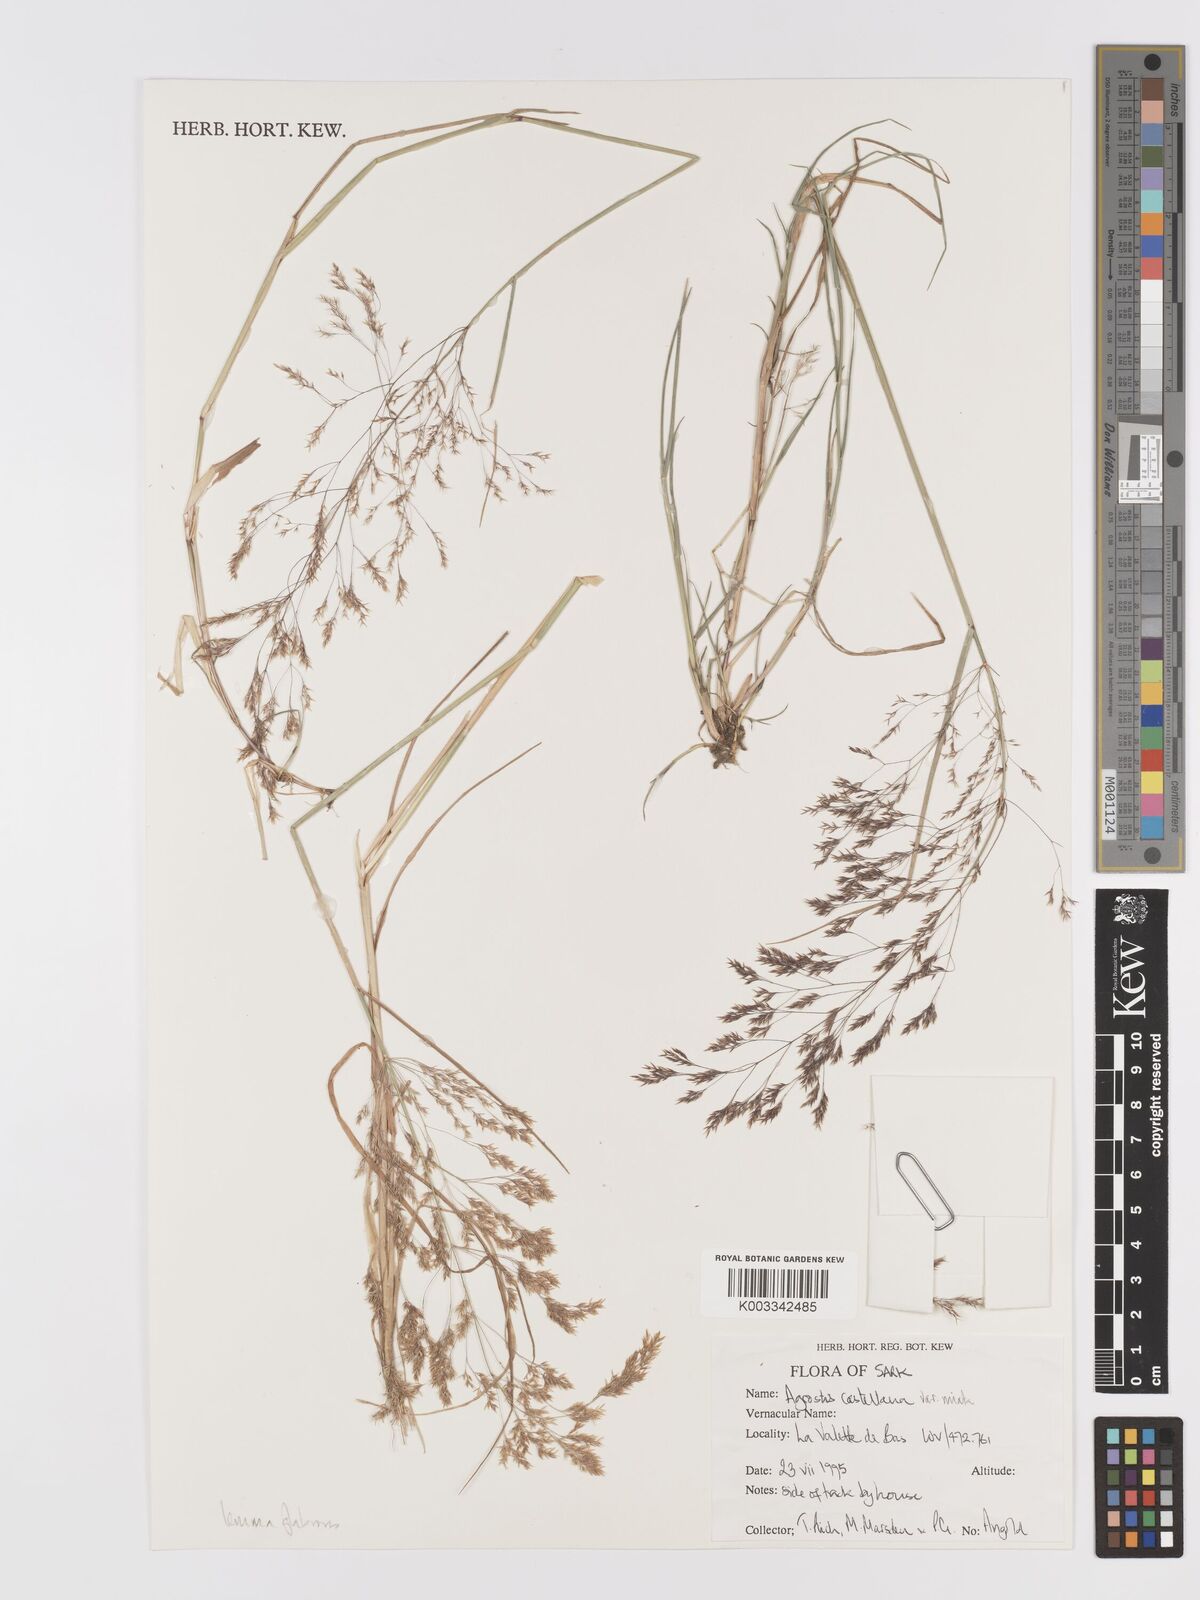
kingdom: Plantae
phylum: Tracheophyta
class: Liliopsida
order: Poales
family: Poaceae
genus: Agrostis
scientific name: Agrostis castellana
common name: Highland bent
